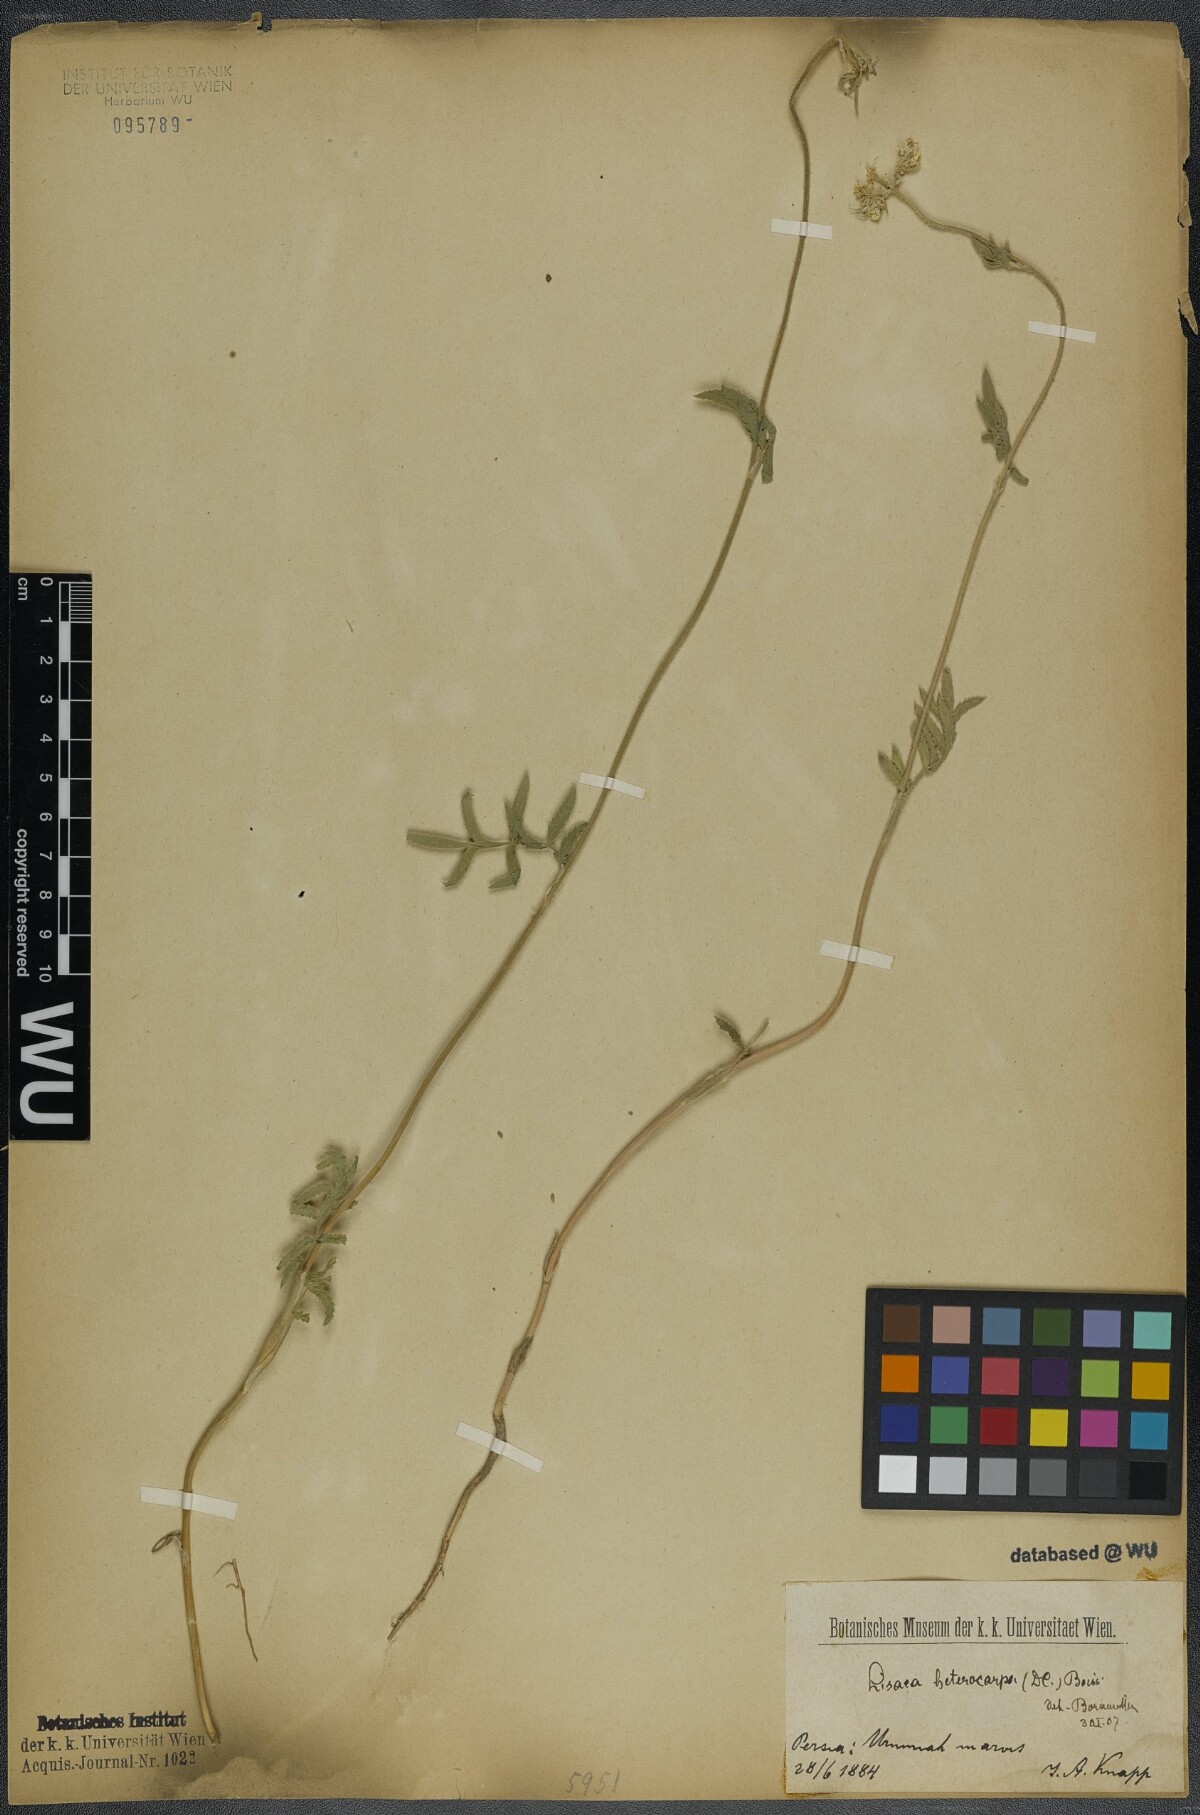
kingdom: Plantae
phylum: Tracheophyta
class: Magnoliopsida
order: Apiales
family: Apiaceae
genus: Lisaea
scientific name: Lisaea heterocarpa
